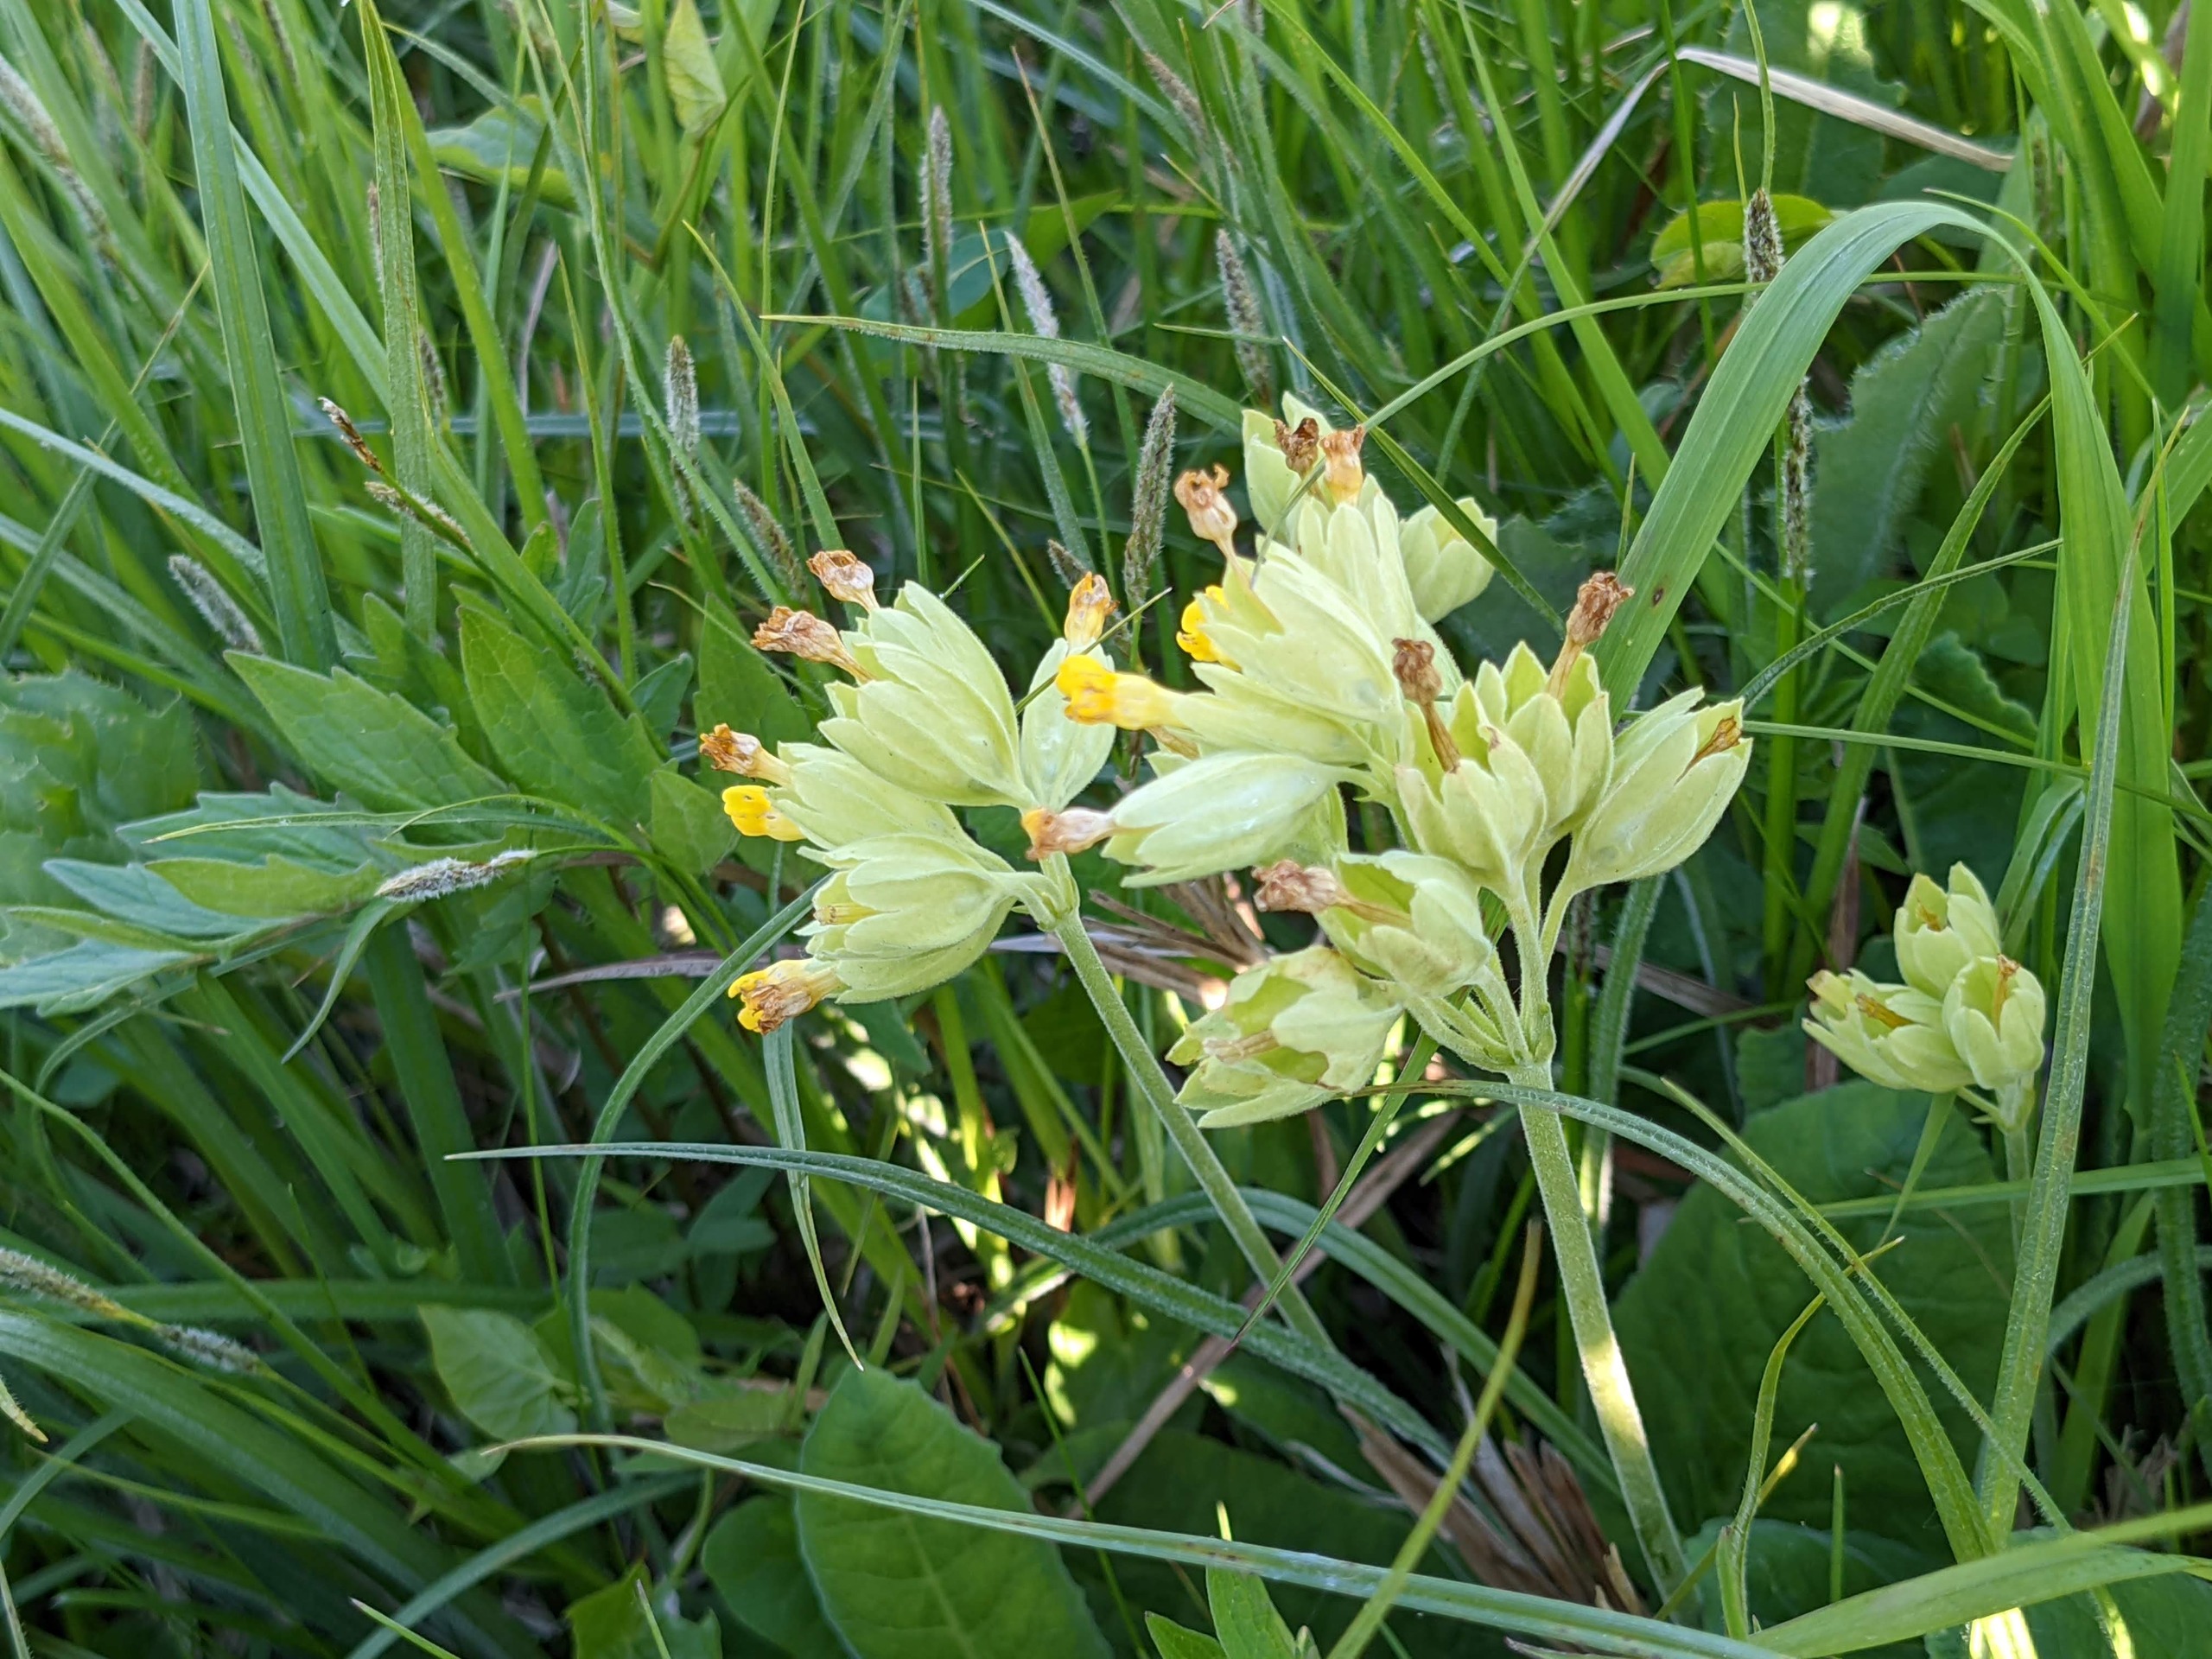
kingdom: Plantae
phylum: Tracheophyta
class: Magnoliopsida
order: Ericales
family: Primulaceae
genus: Primula
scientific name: Primula veris
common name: Hulkravet kodriver
